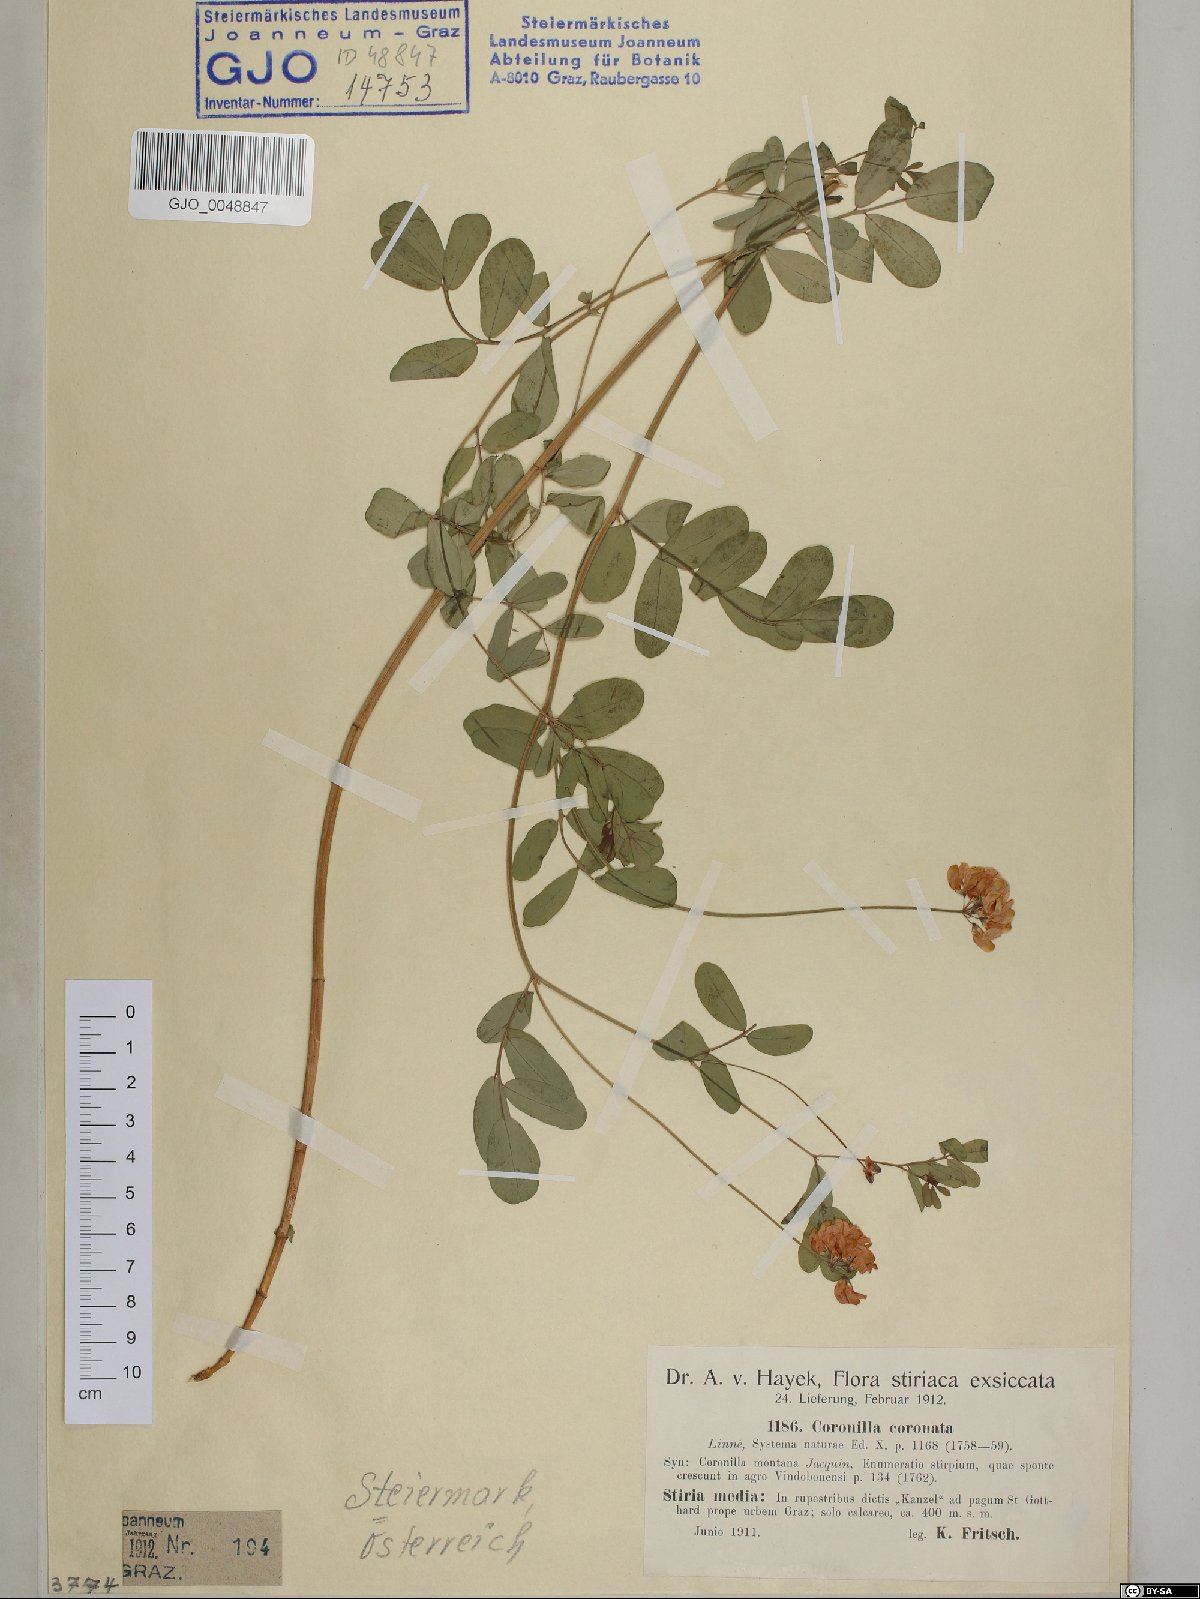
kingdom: Plantae
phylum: Tracheophyta
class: Magnoliopsida
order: Fabales
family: Fabaceae
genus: Coronilla
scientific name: Coronilla coronata
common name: Scorpion-vetch
